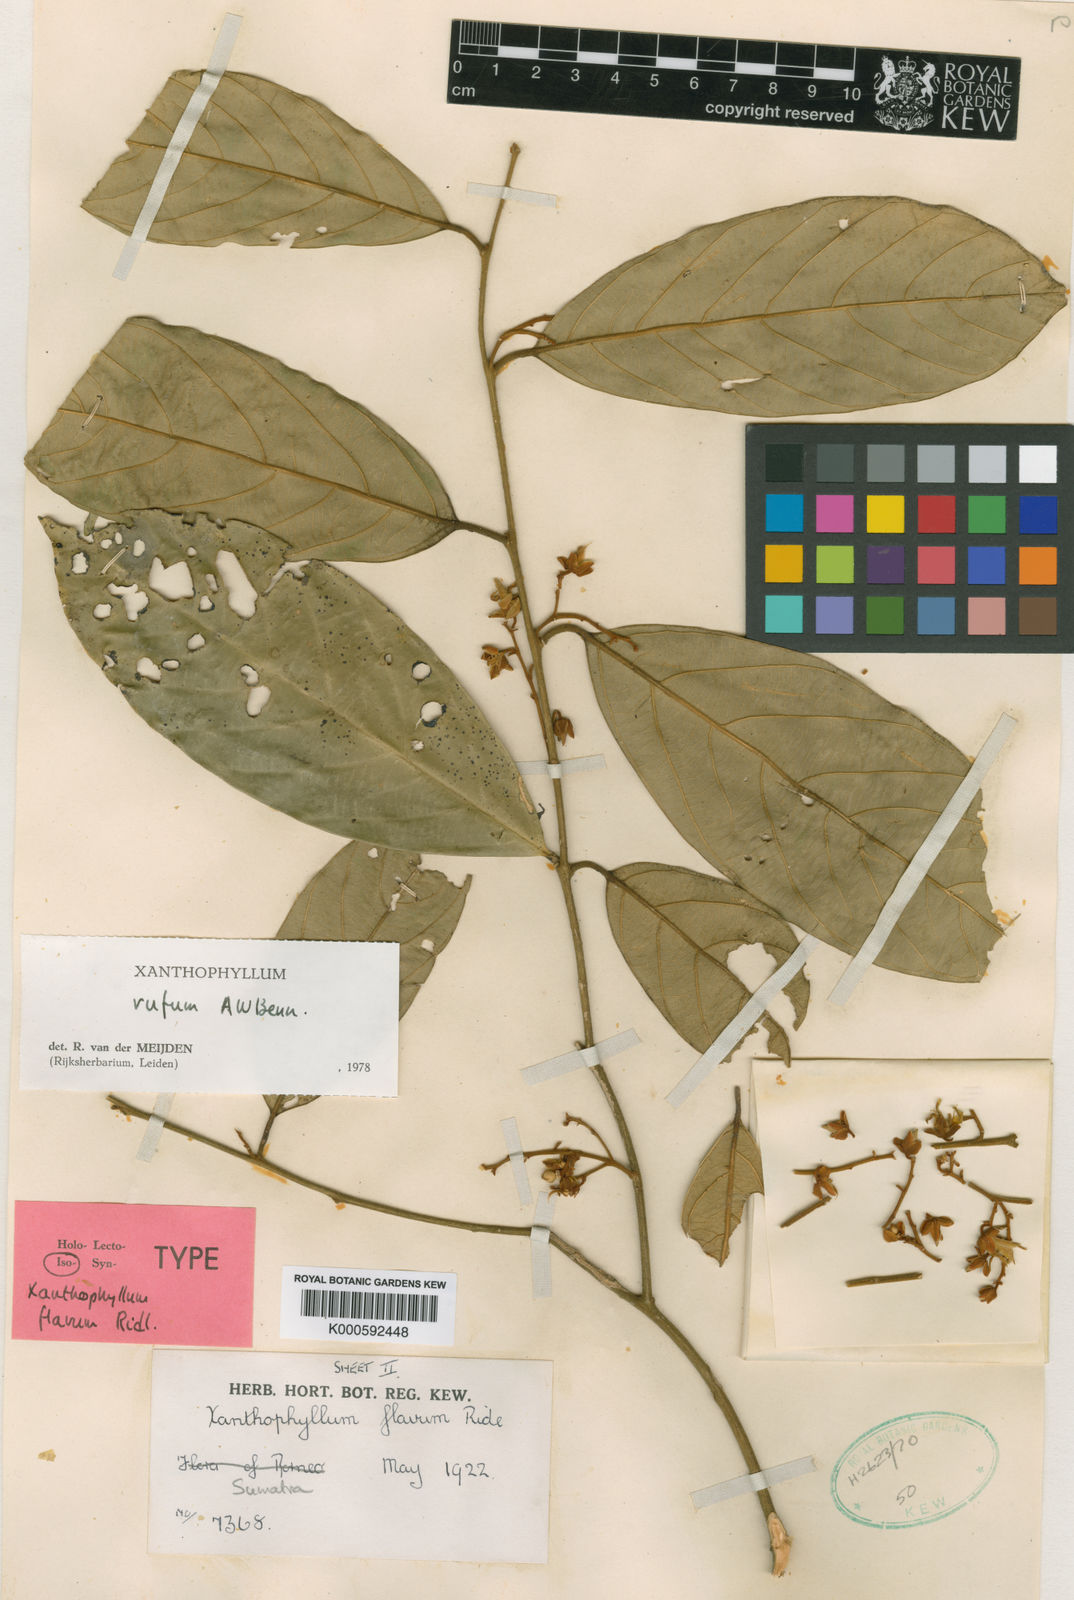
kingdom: Plantae
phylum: Tracheophyta
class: Magnoliopsida
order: Fabales
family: Polygalaceae
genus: Xanthophyllum
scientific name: Xanthophyllum rufum
